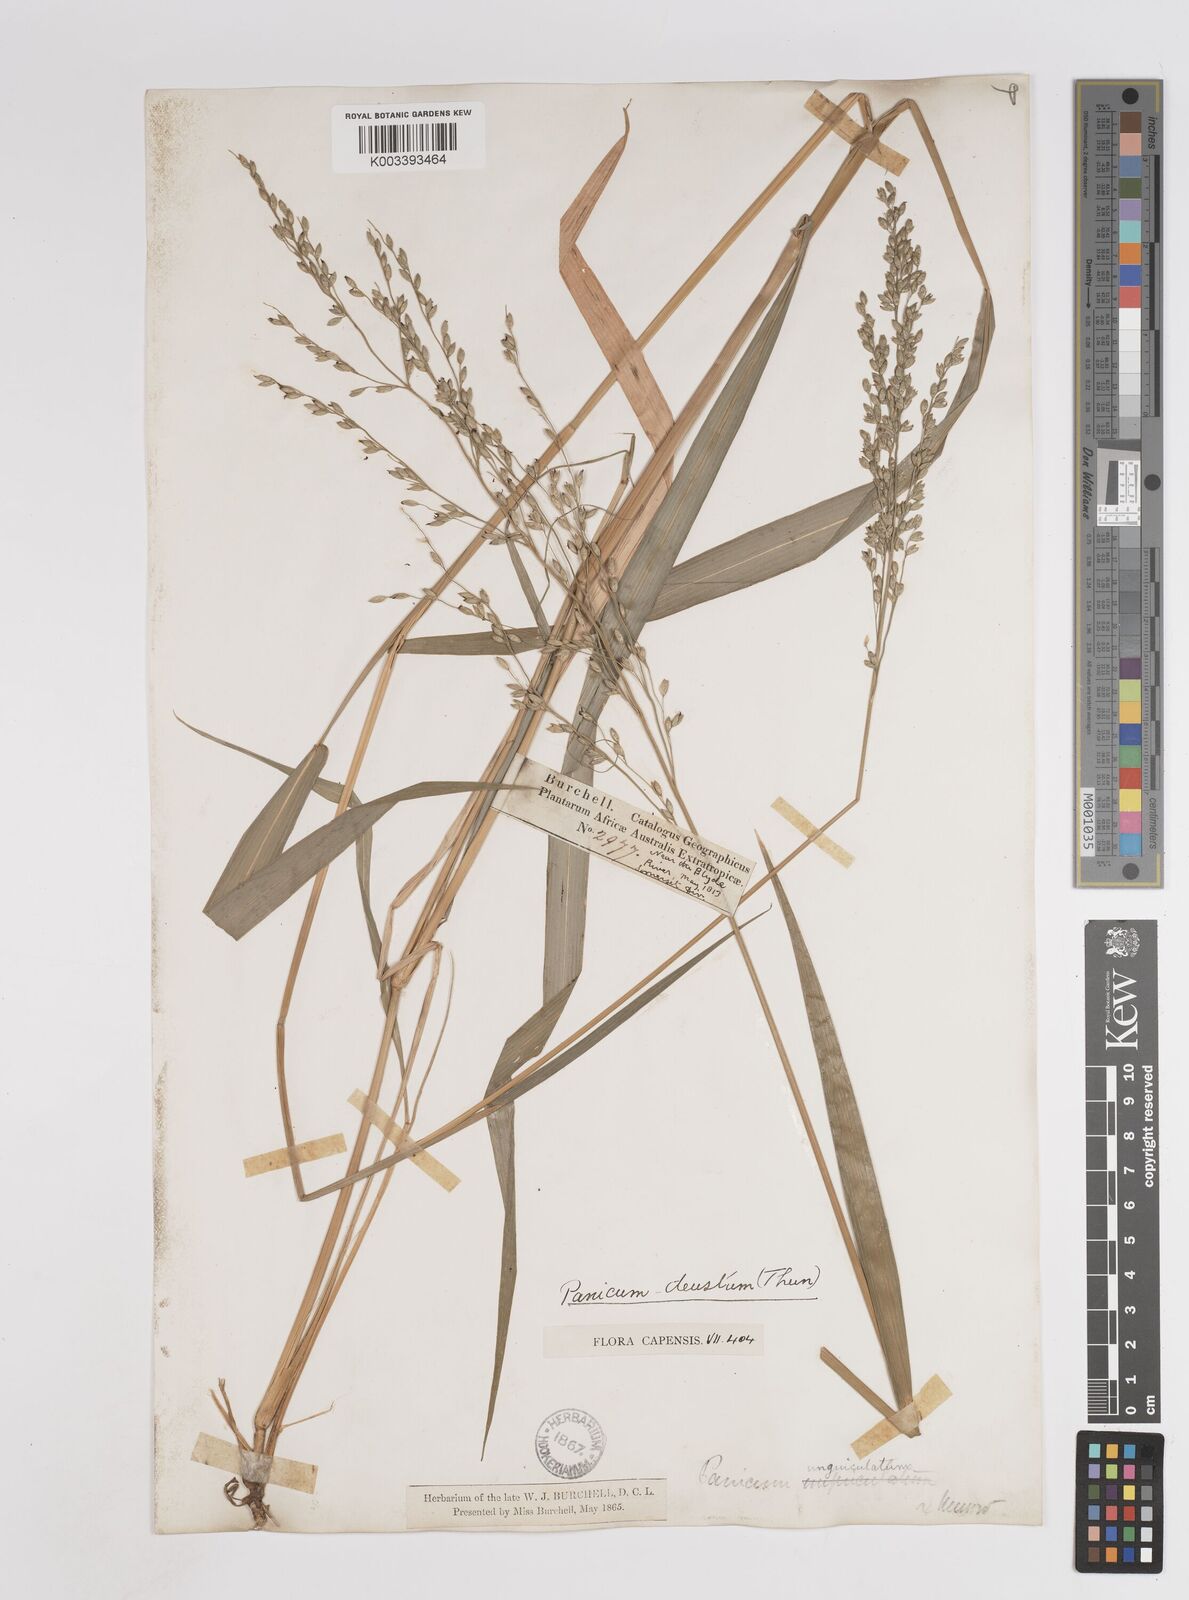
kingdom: Plantae
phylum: Tracheophyta
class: Liliopsida
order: Poales
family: Poaceae
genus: Panicum
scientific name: Panicum deustum
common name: Reed panicum
